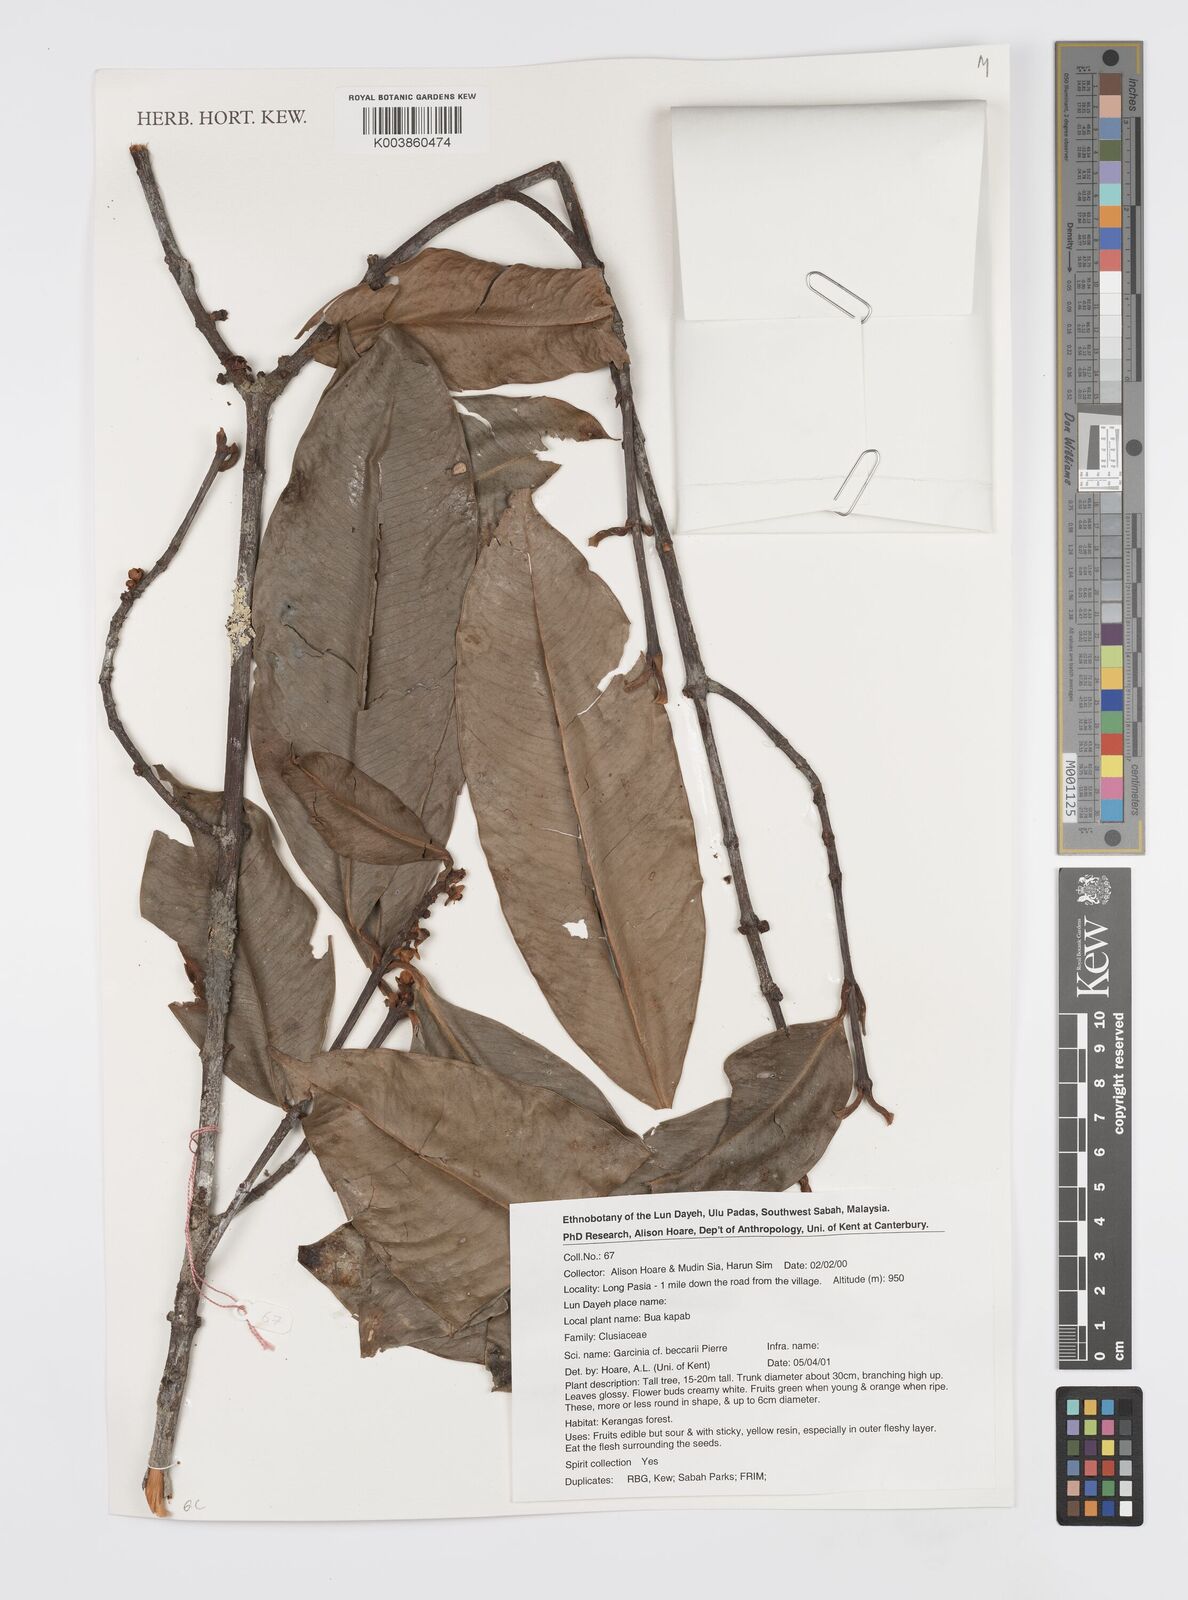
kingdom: Plantae
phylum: Tracheophyta
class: Magnoliopsida
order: Malpighiales
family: Clusiaceae
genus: Garcinia
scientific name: Garcinia beccarii
